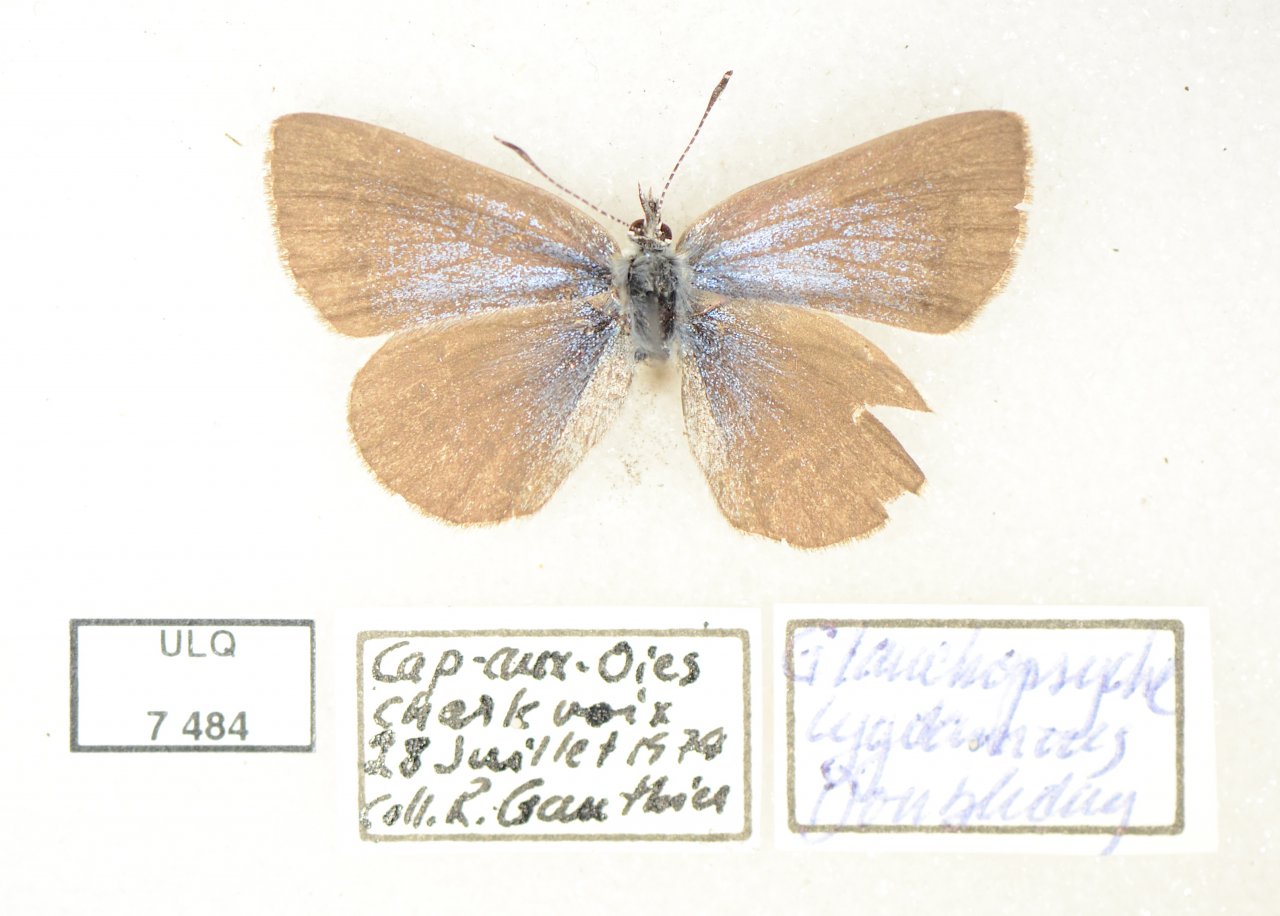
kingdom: Animalia
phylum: Arthropoda
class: Insecta
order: Lepidoptera
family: Lycaenidae
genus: Glaucopsyche
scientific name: Glaucopsyche lygdamus
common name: Silvery Blue
